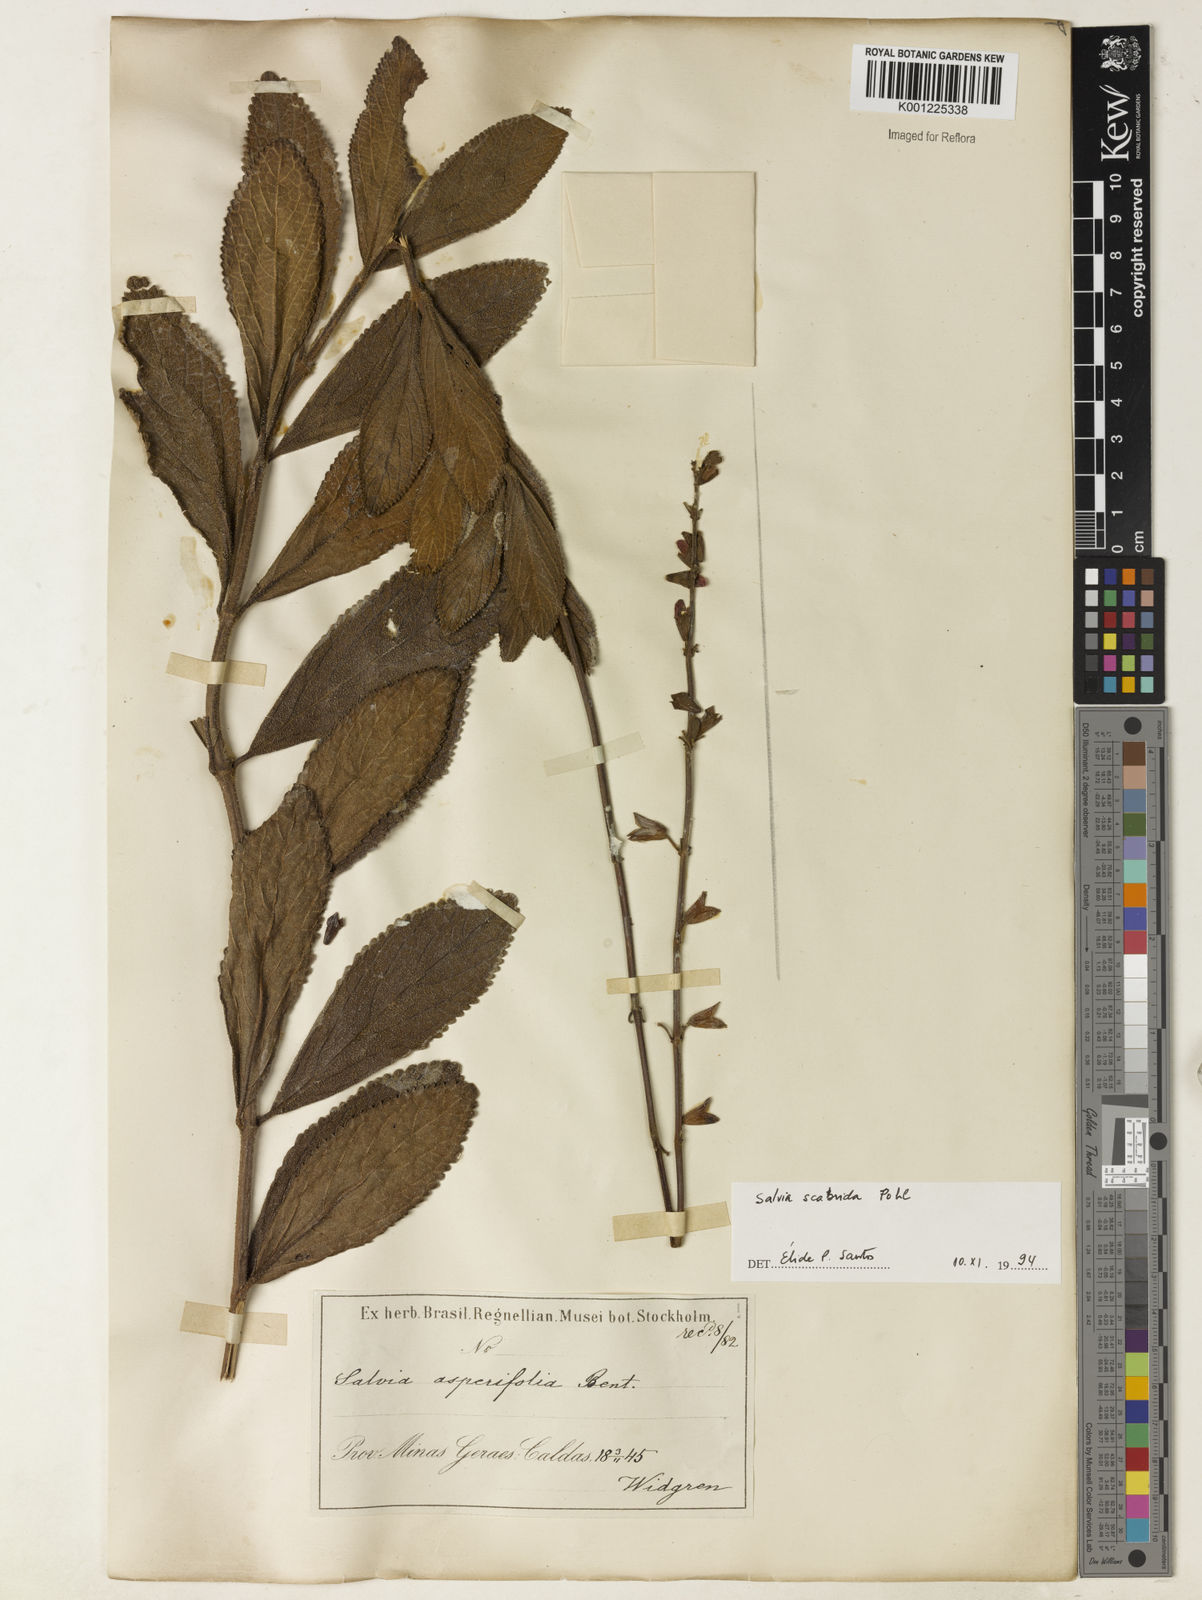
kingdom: Plantae
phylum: Tracheophyta
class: Magnoliopsida
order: Lamiales
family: Lamiaceae
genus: Salvia
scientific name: Salvia scabrida
